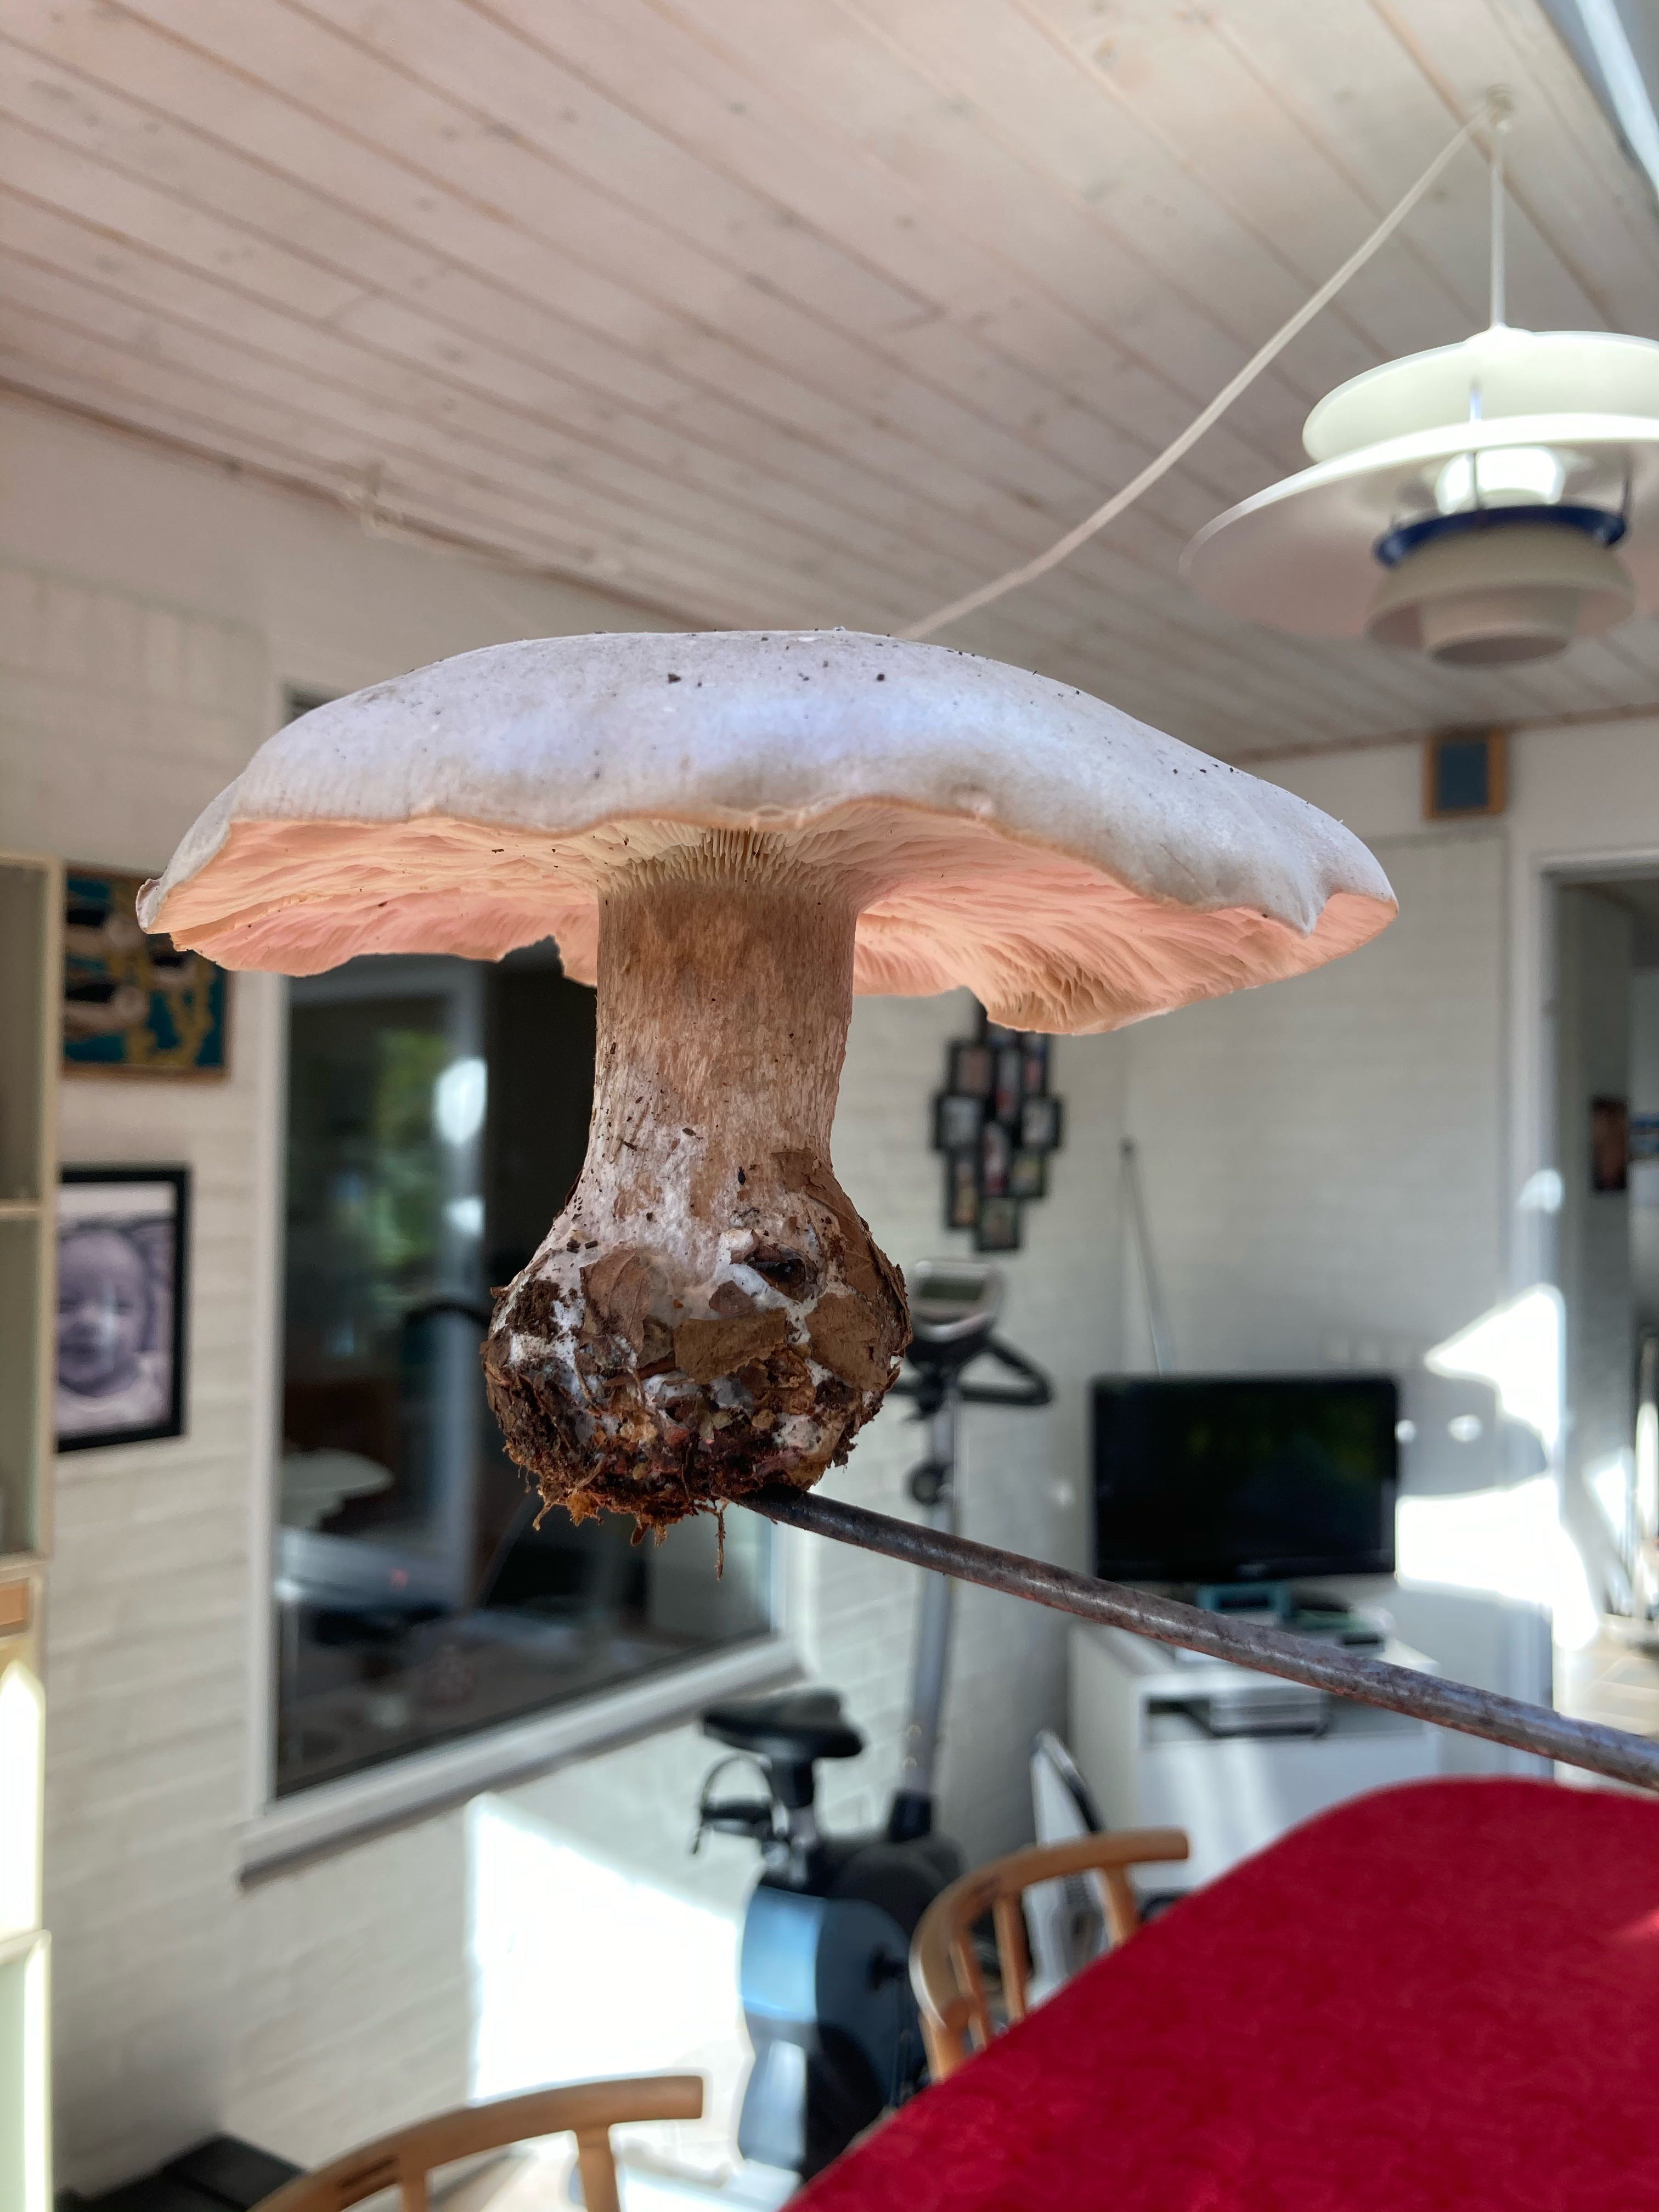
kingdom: Fungi
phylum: Basidiomycota
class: Agaricomycetes
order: Agaricales
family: Tricholomataceae
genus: Clitocybe
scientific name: Clitocybe nebularis
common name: tåge-tragthat
